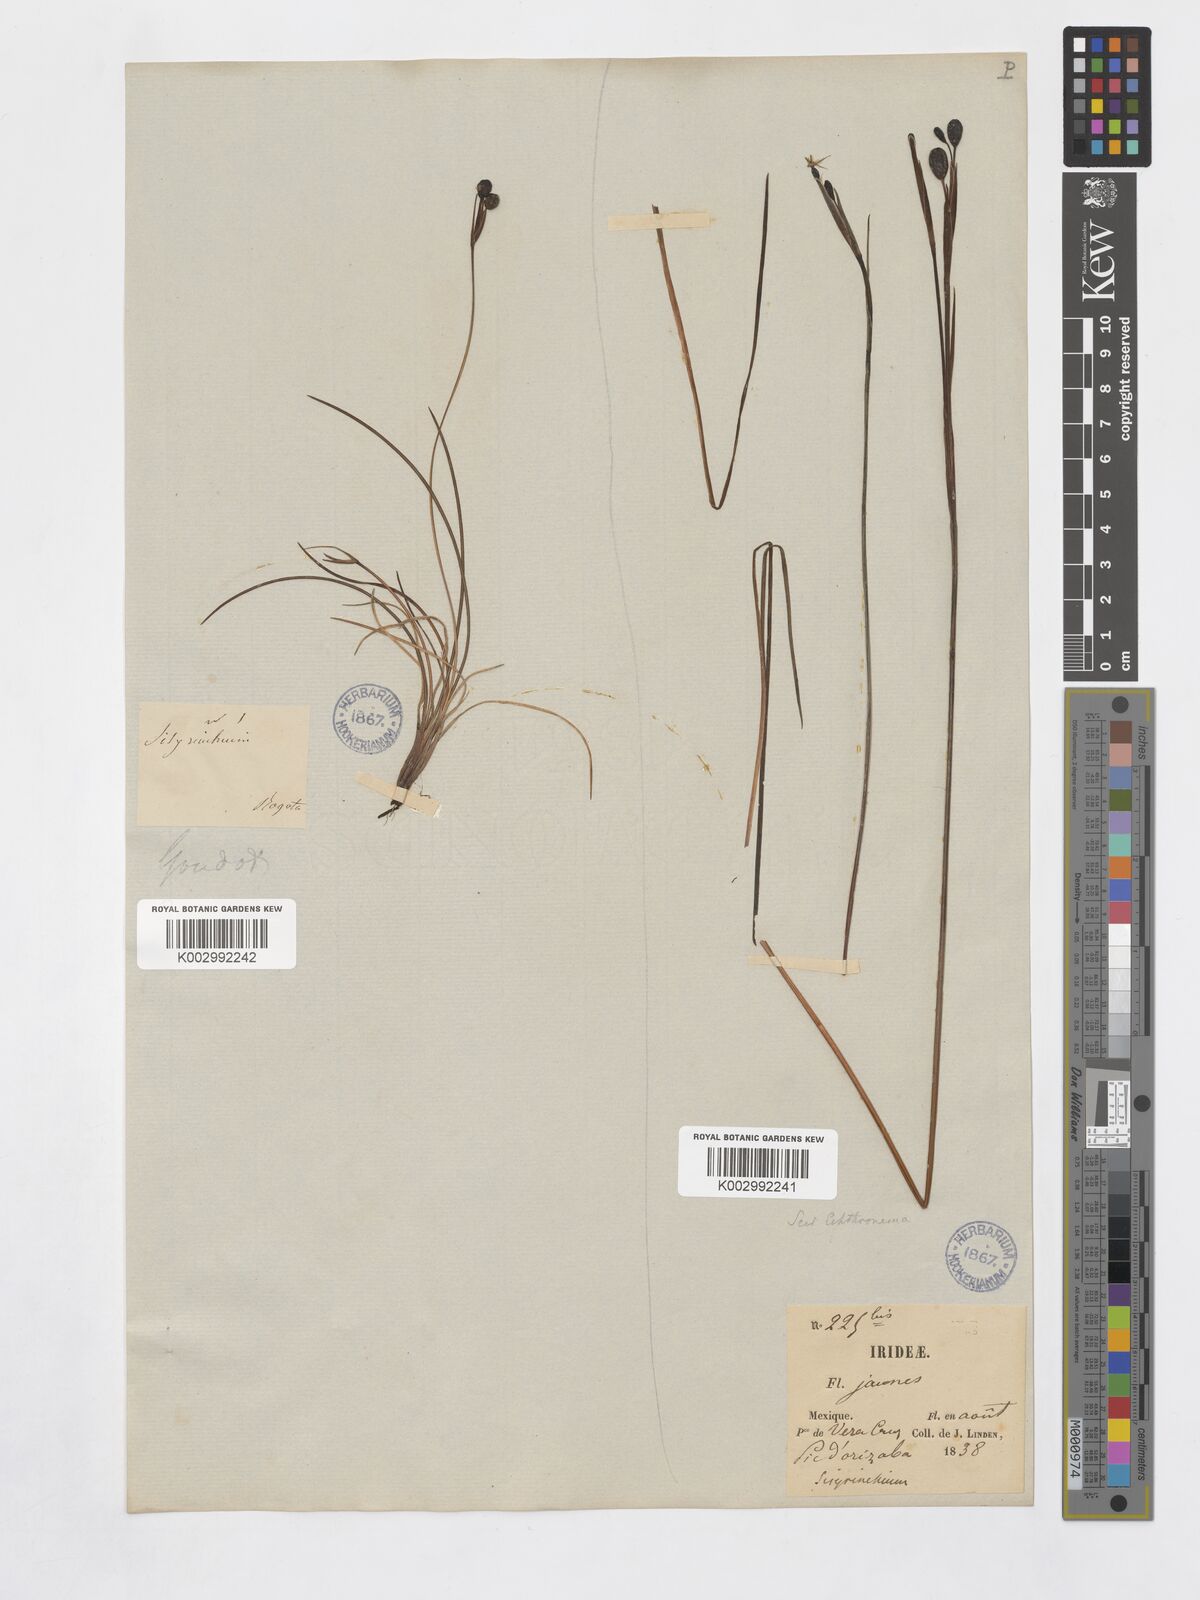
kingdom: Plantae
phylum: Tracheophyta
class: Liliopsida
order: Asparagales
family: Iridaceae
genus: Sisyrinchium
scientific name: Sisyrinchium
